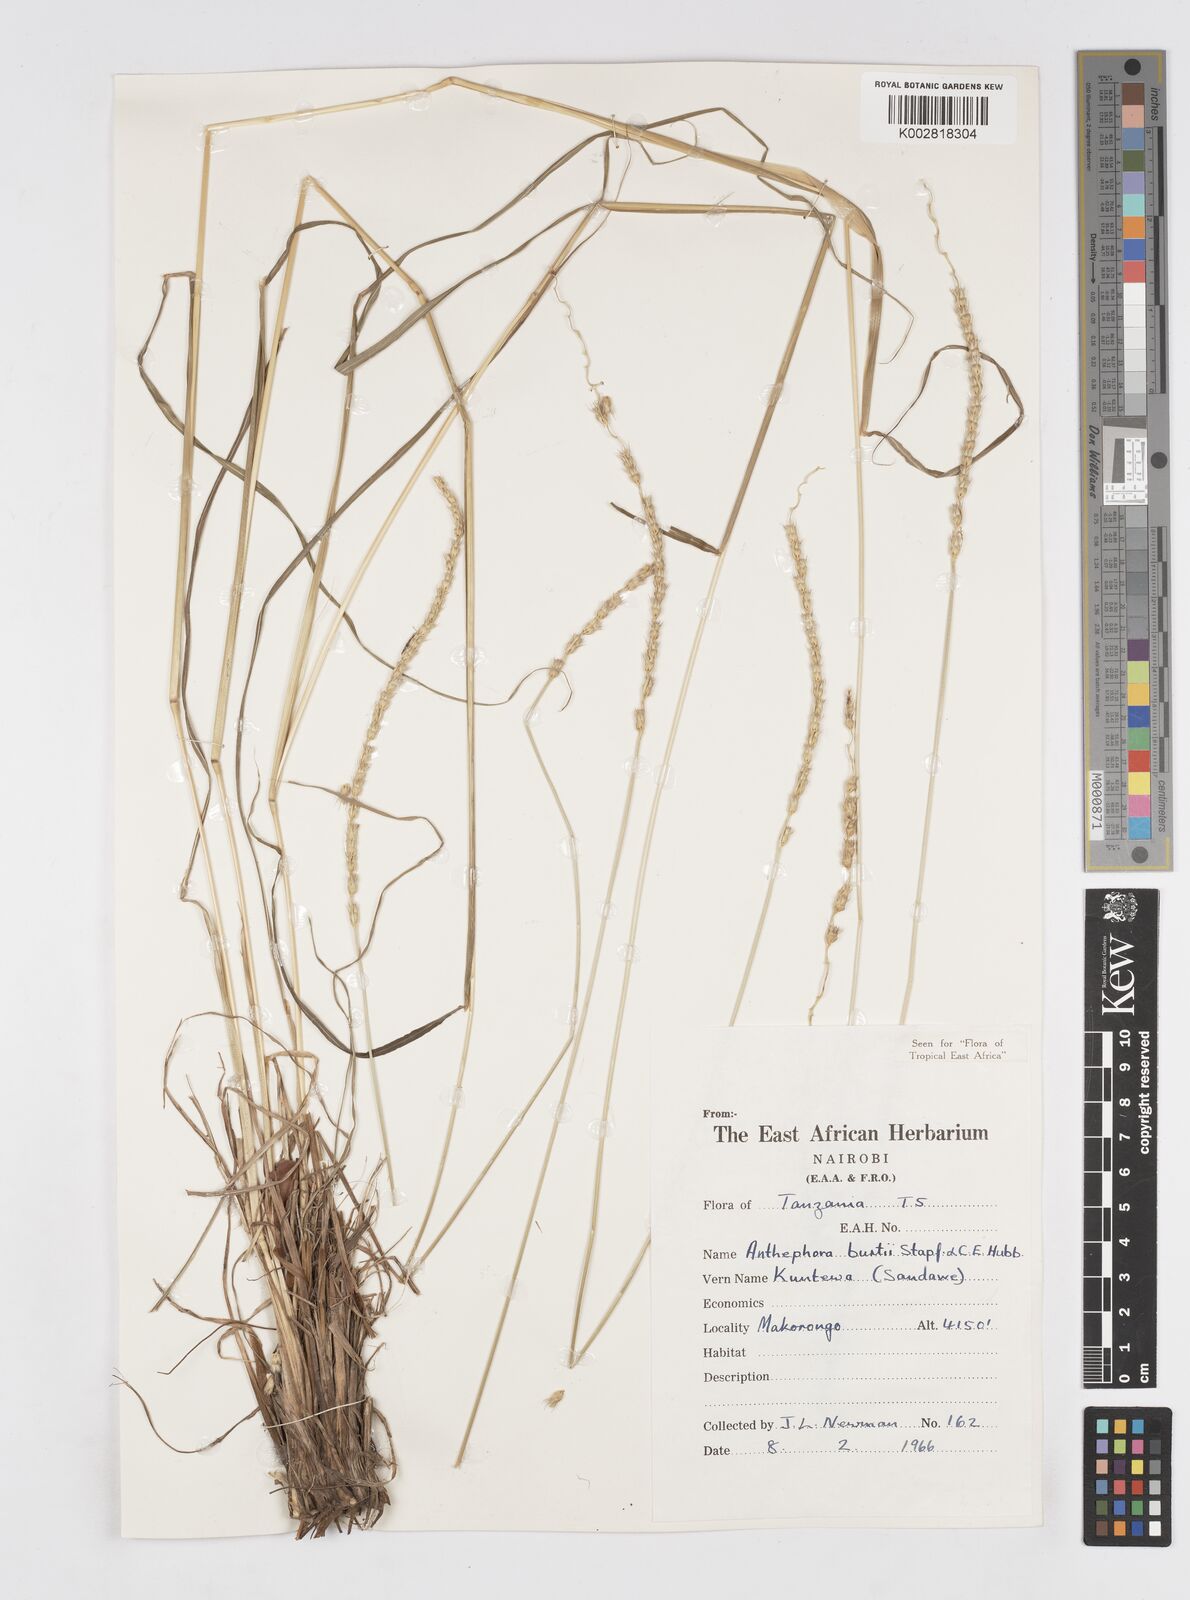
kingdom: Plantae
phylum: Tracheophyta
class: Liliopsida
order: Poales
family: Poaceae
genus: Anthephora
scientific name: Anthephora elongata
